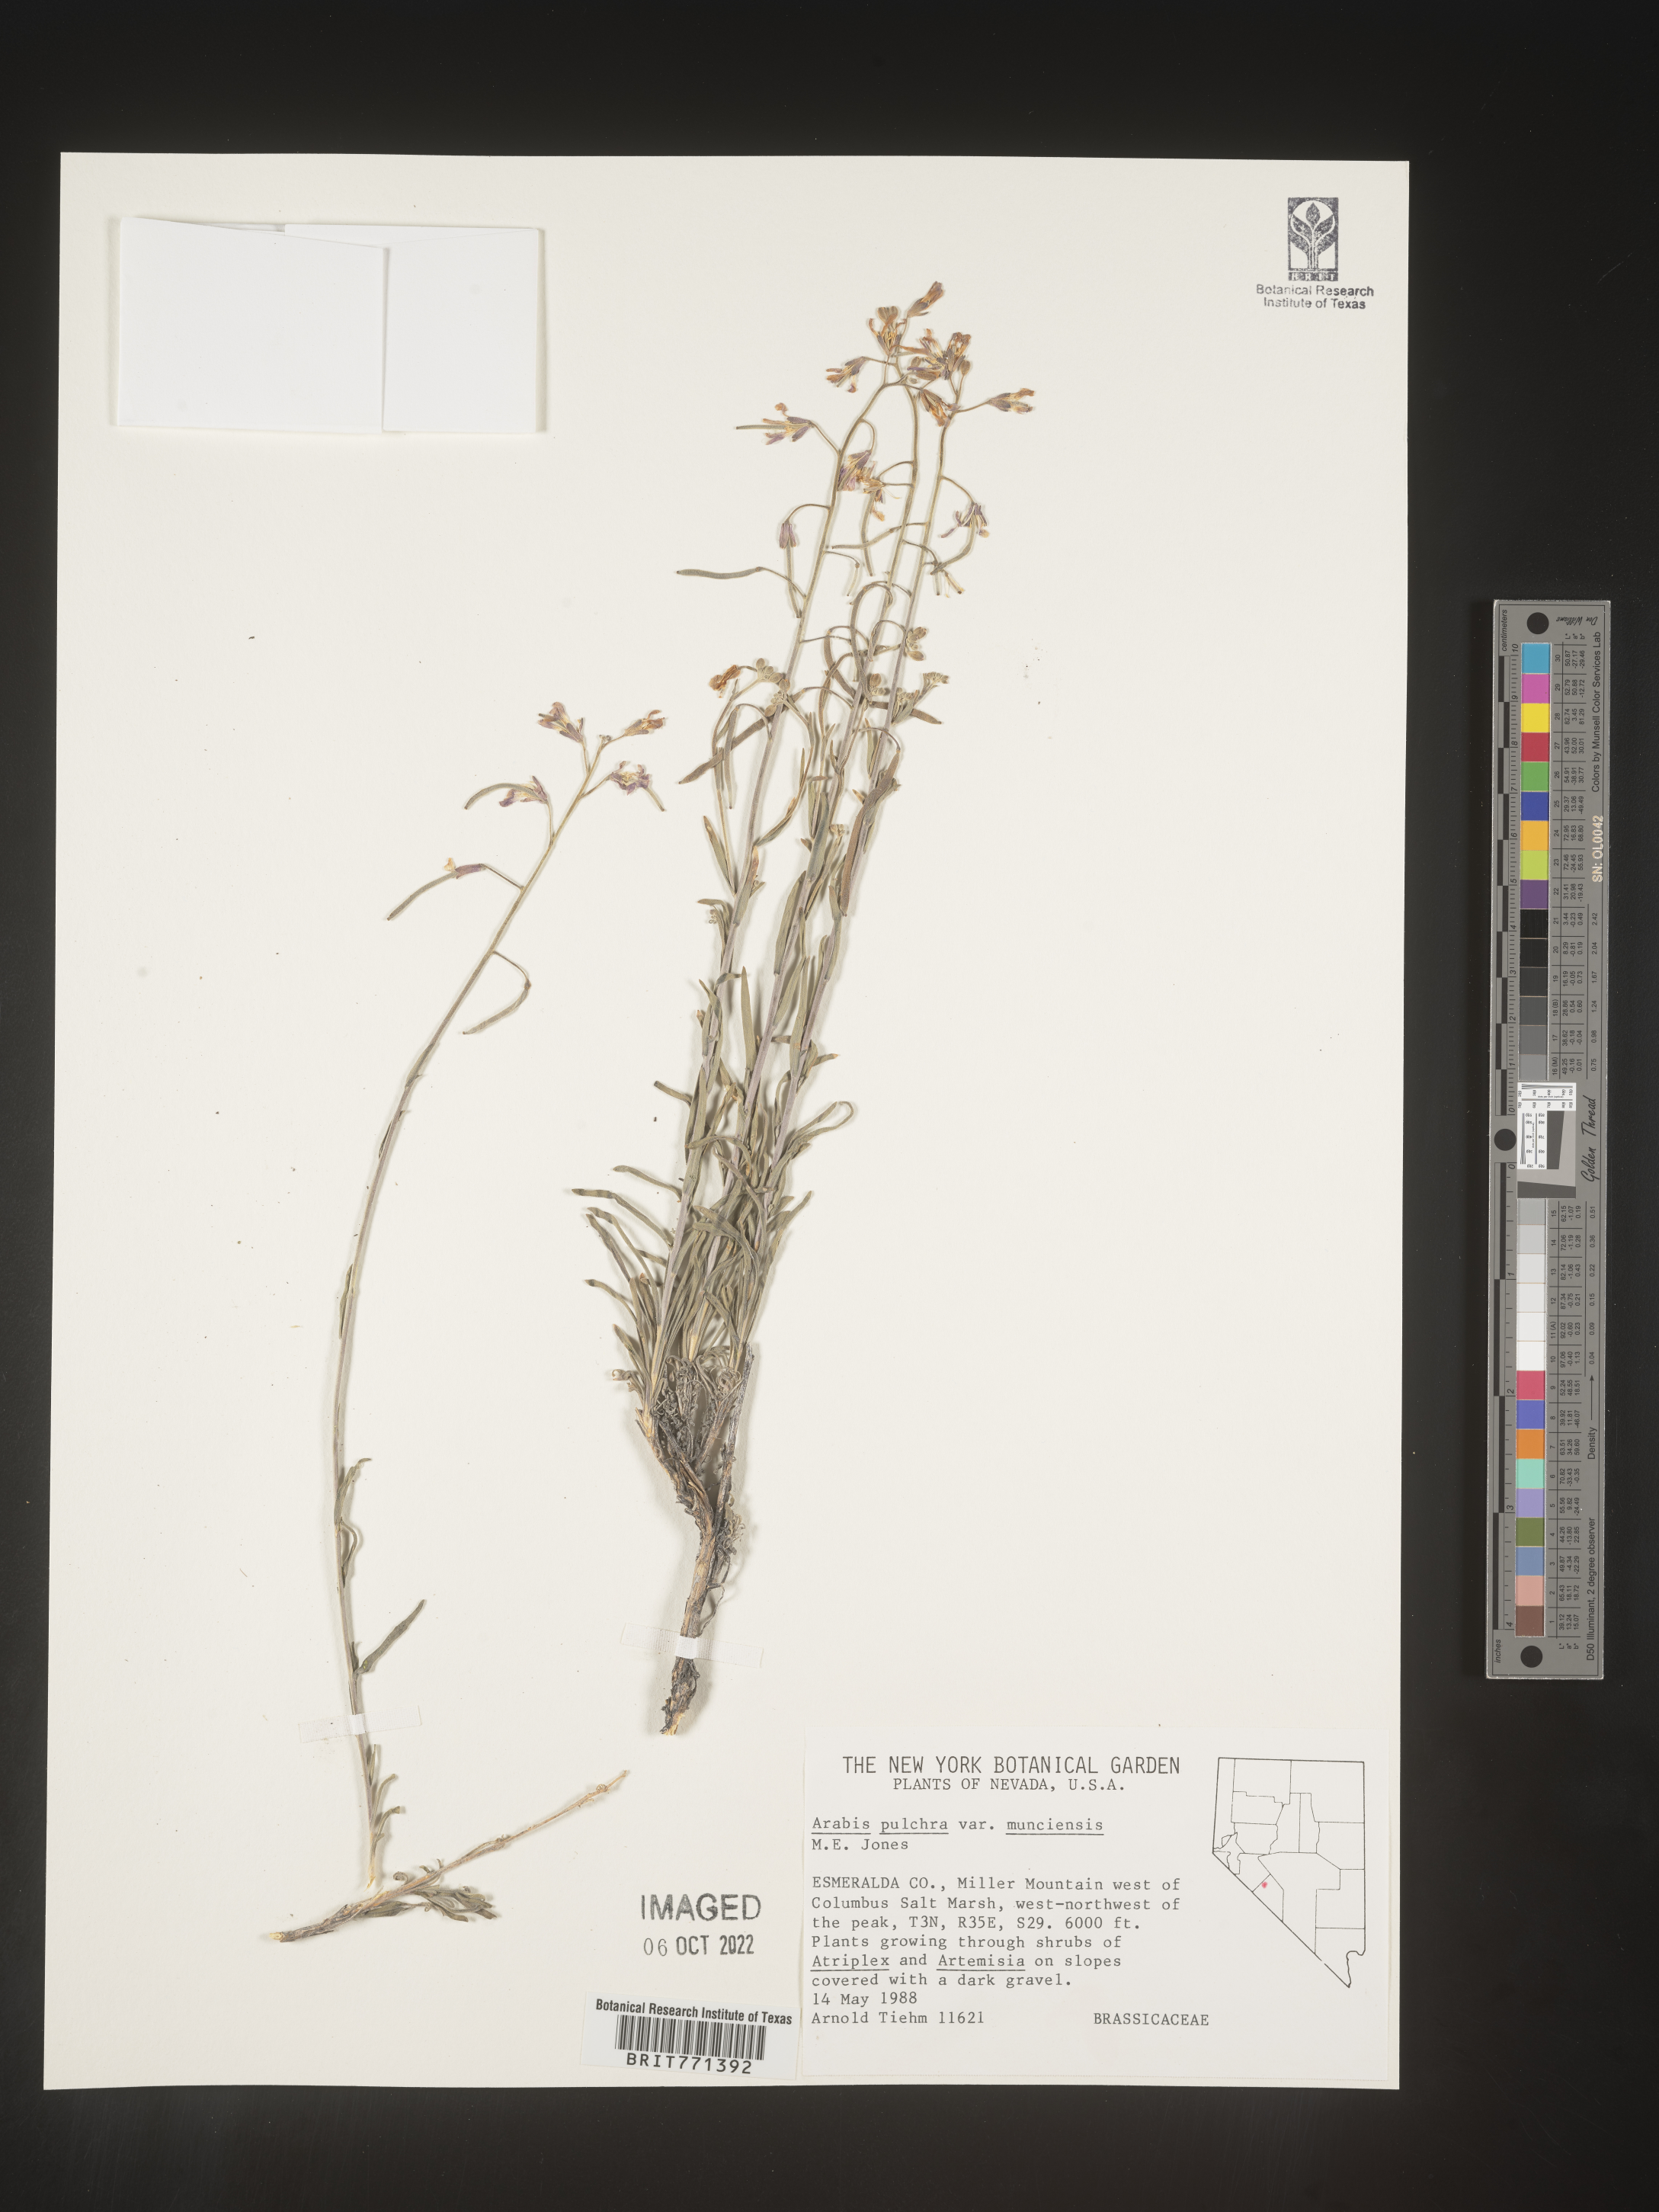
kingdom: Plantae
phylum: Tracheophyta
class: Magnoliopsida
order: Brassicales
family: Brassicaceae
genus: Arabis
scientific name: Arabis
